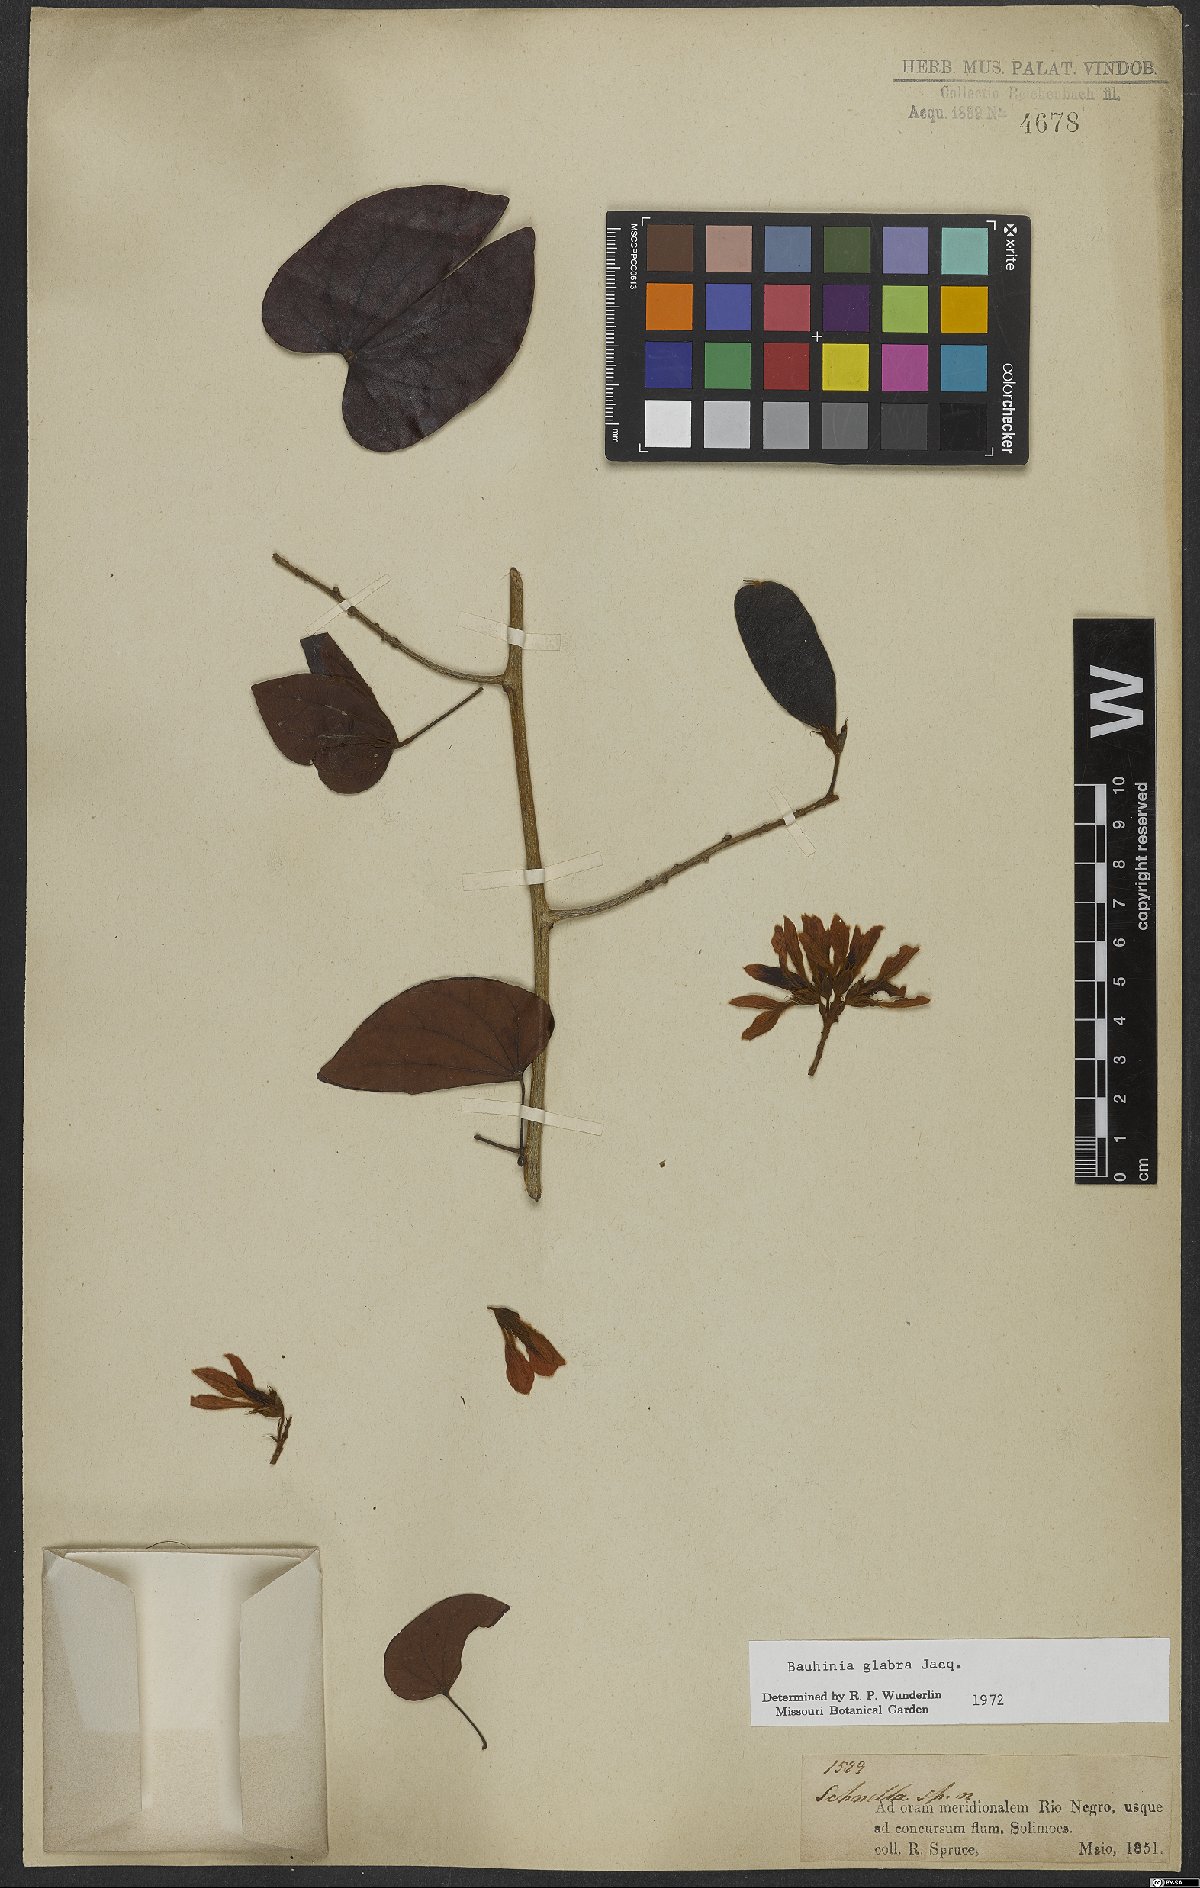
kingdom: Plantae
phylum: Tracheophyta
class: Magnoliopsida
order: Fabales
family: Fabaceae
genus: Schnella
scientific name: Schnella glabra
